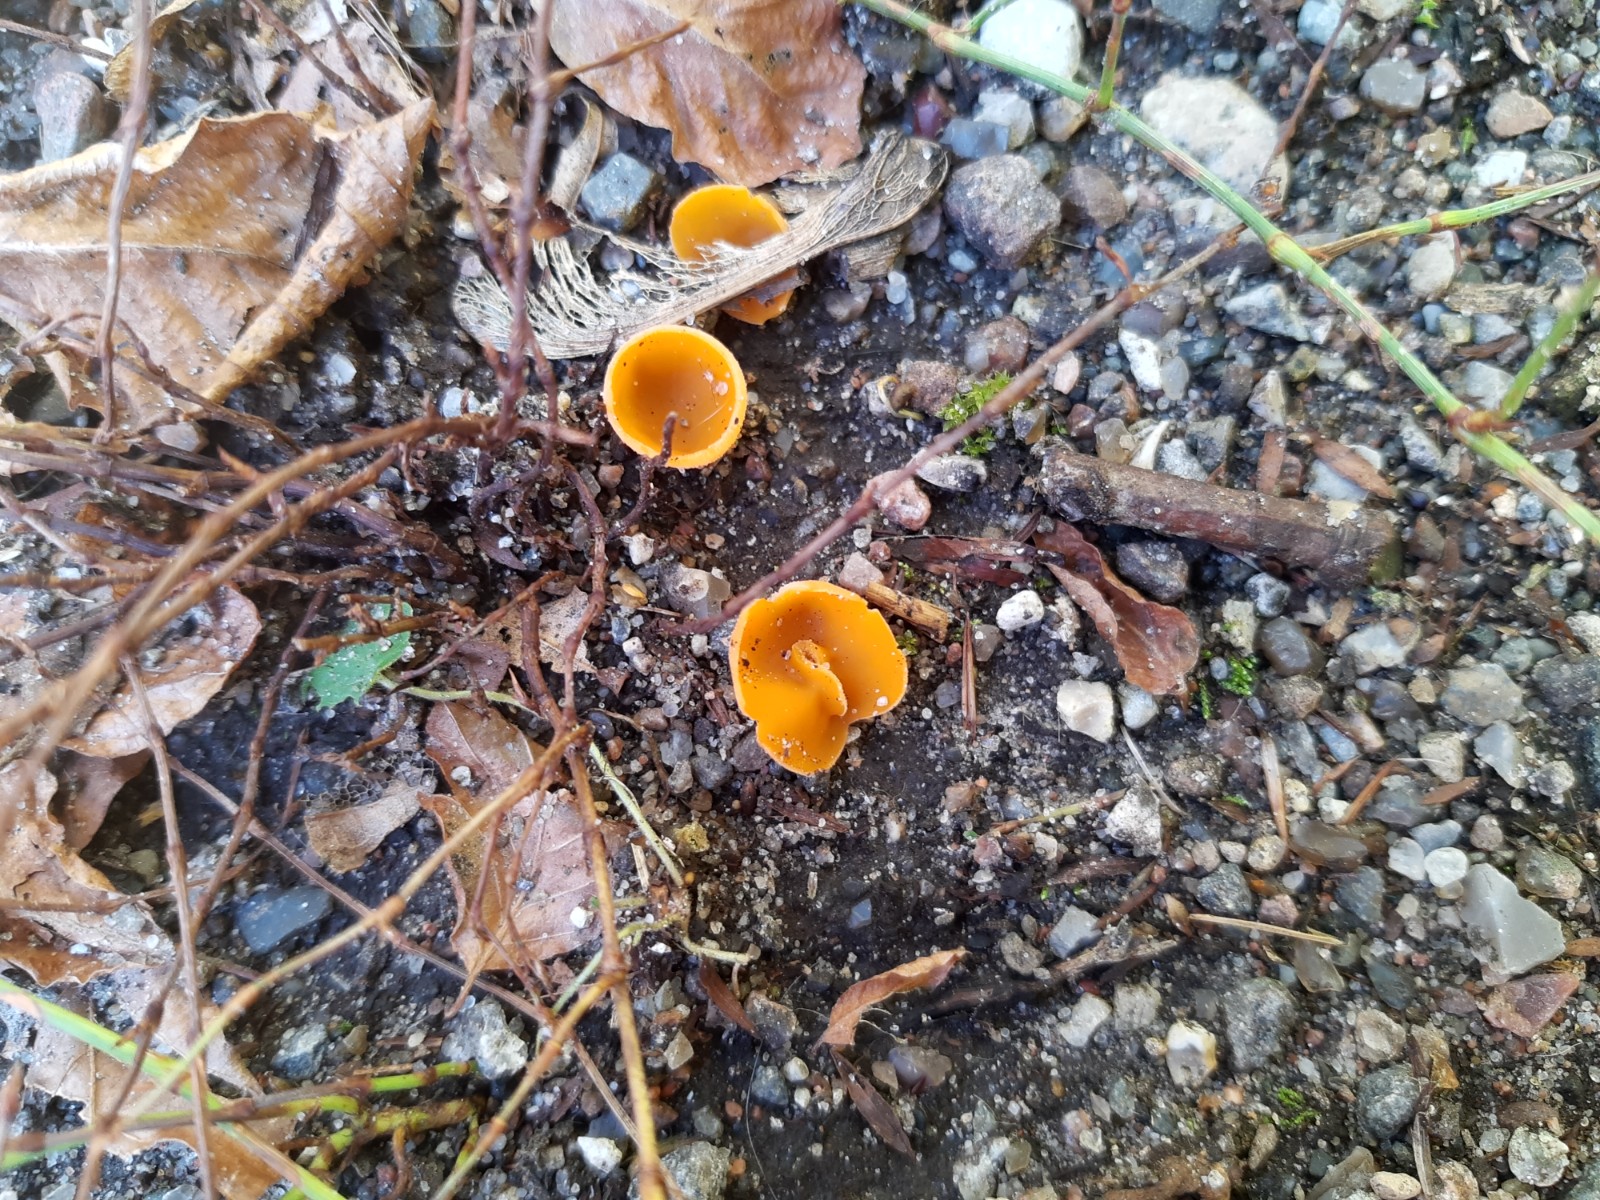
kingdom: Fungi
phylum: Ascomycota
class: Pezizomycetes
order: Pezizales
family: Pyronemataceae
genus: Aleuria
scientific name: Aleuria aurantia
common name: almindelig orangebæger
